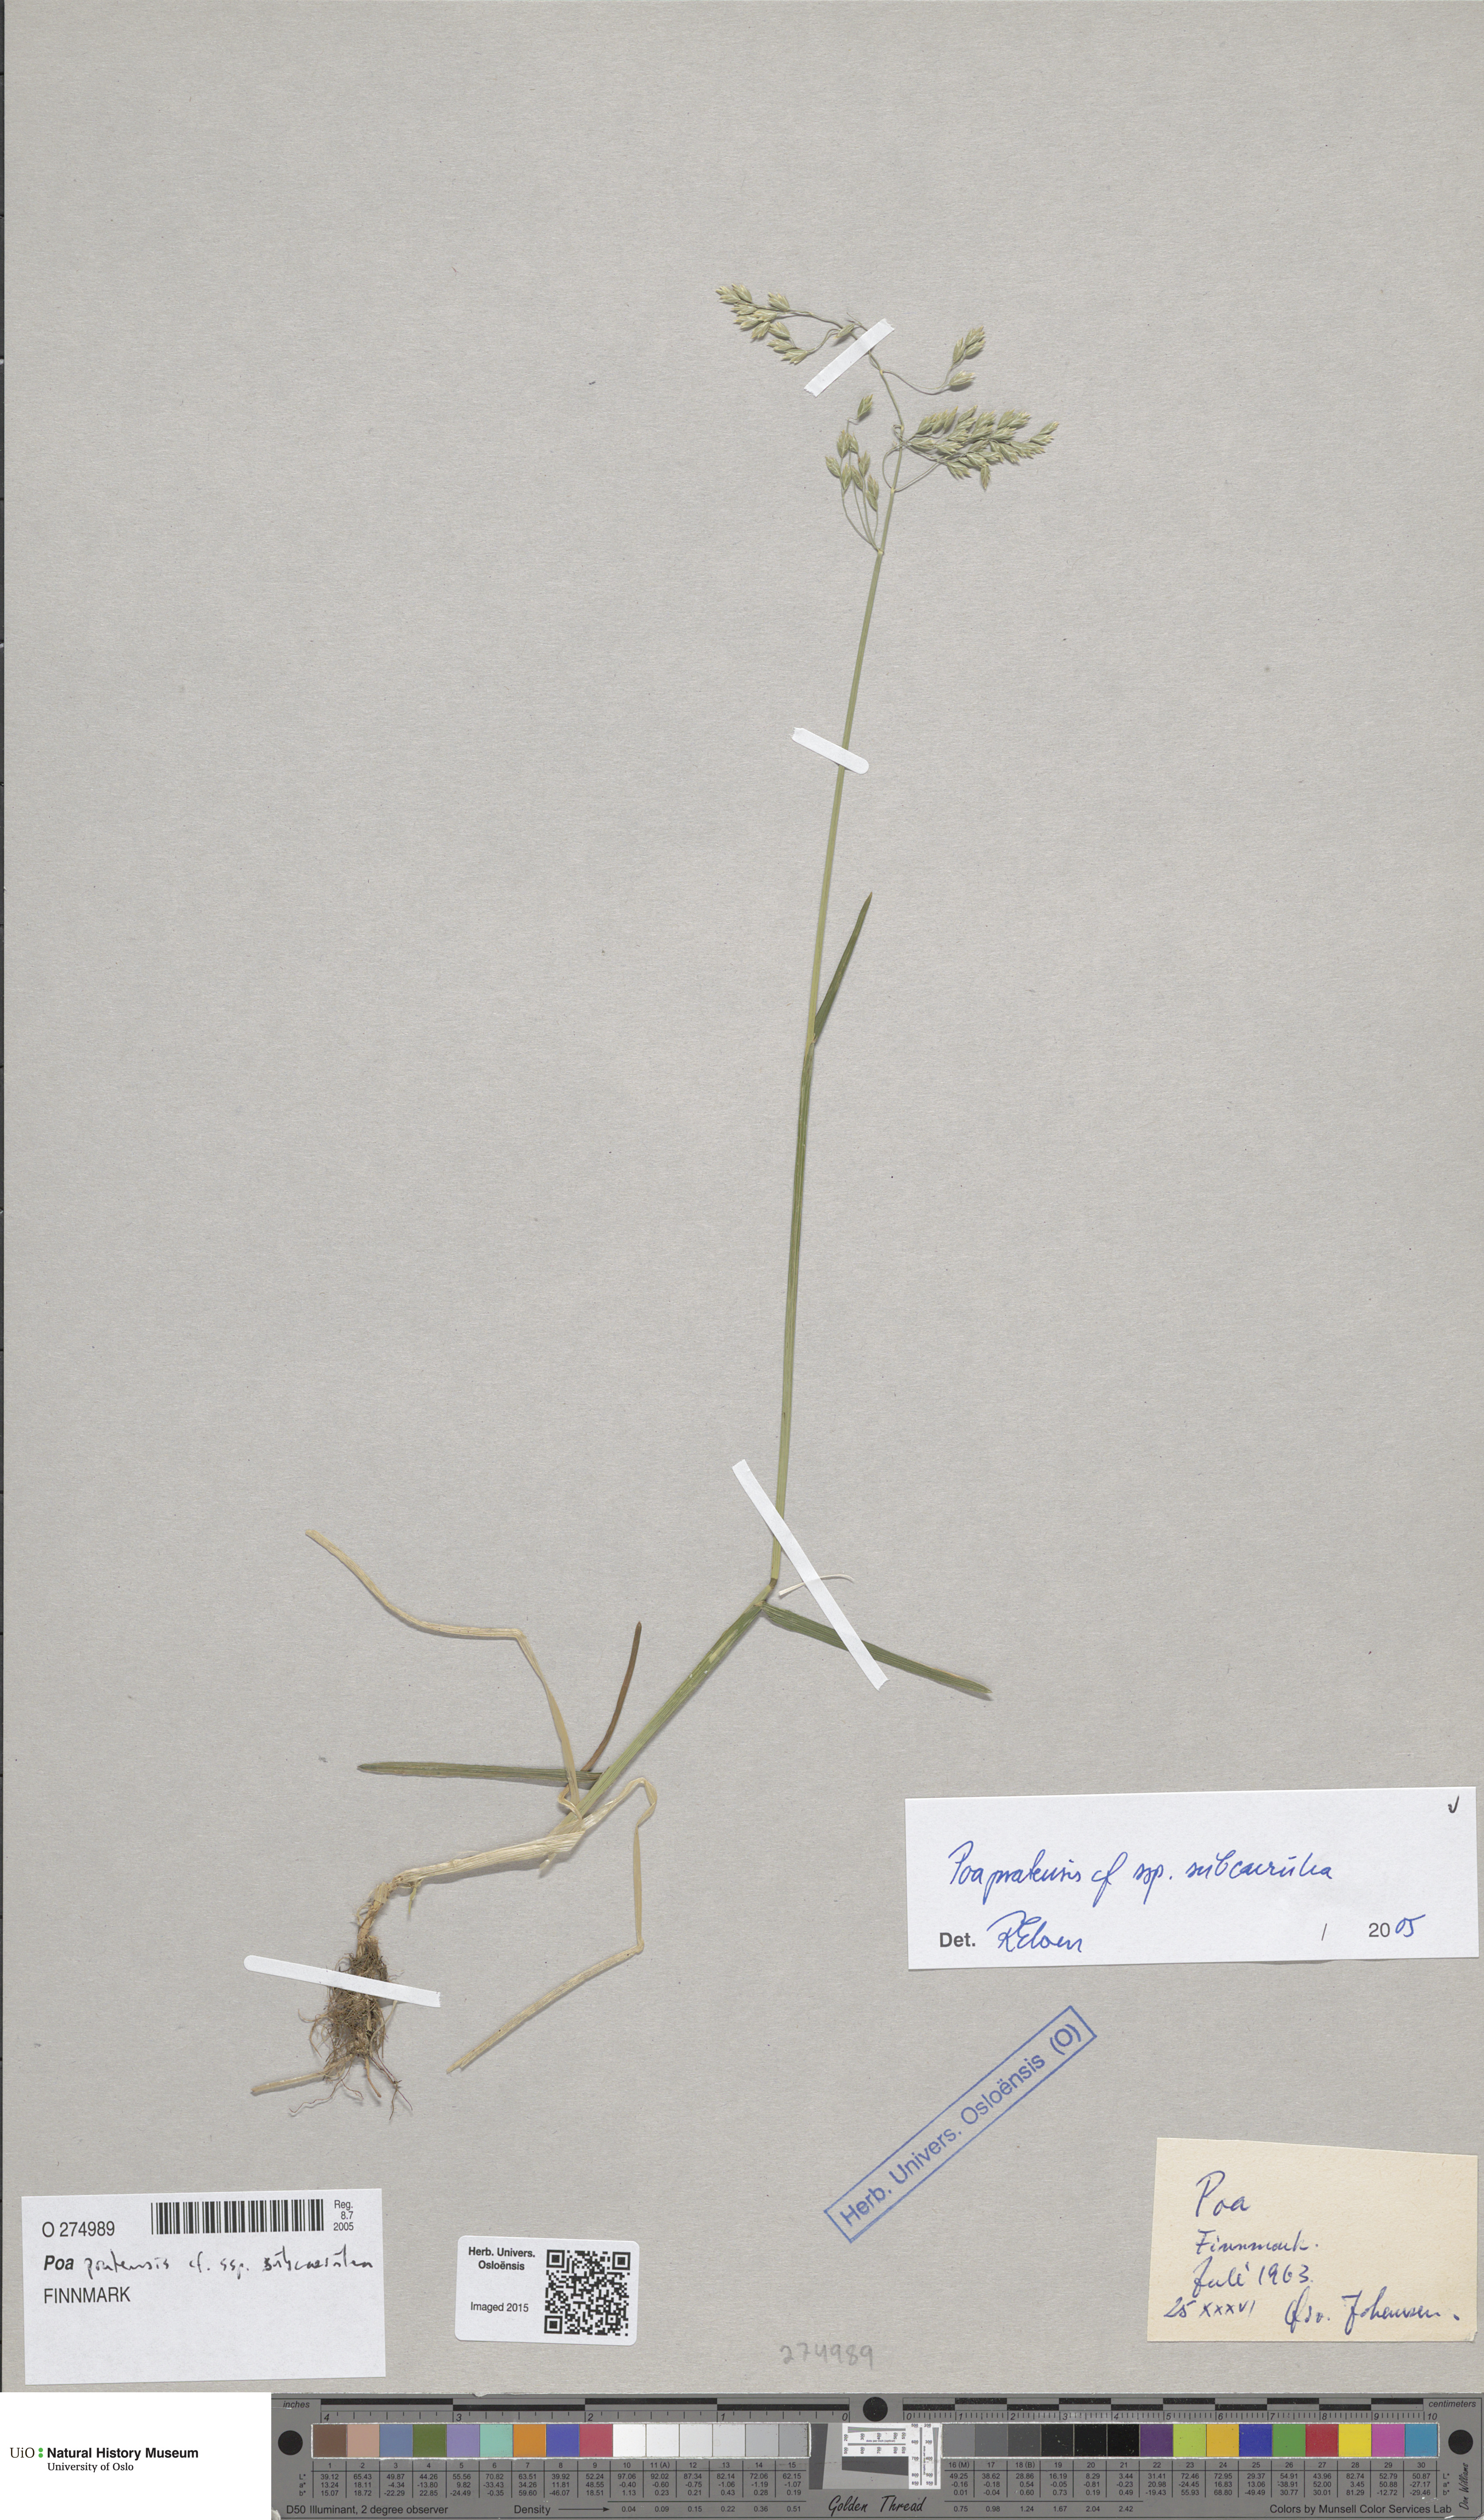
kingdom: Plantae
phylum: Tracheophyta
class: Liliopsida
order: Poales
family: Poaceae
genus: Poa
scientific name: Poa humilis
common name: Spreading meadow-grass
